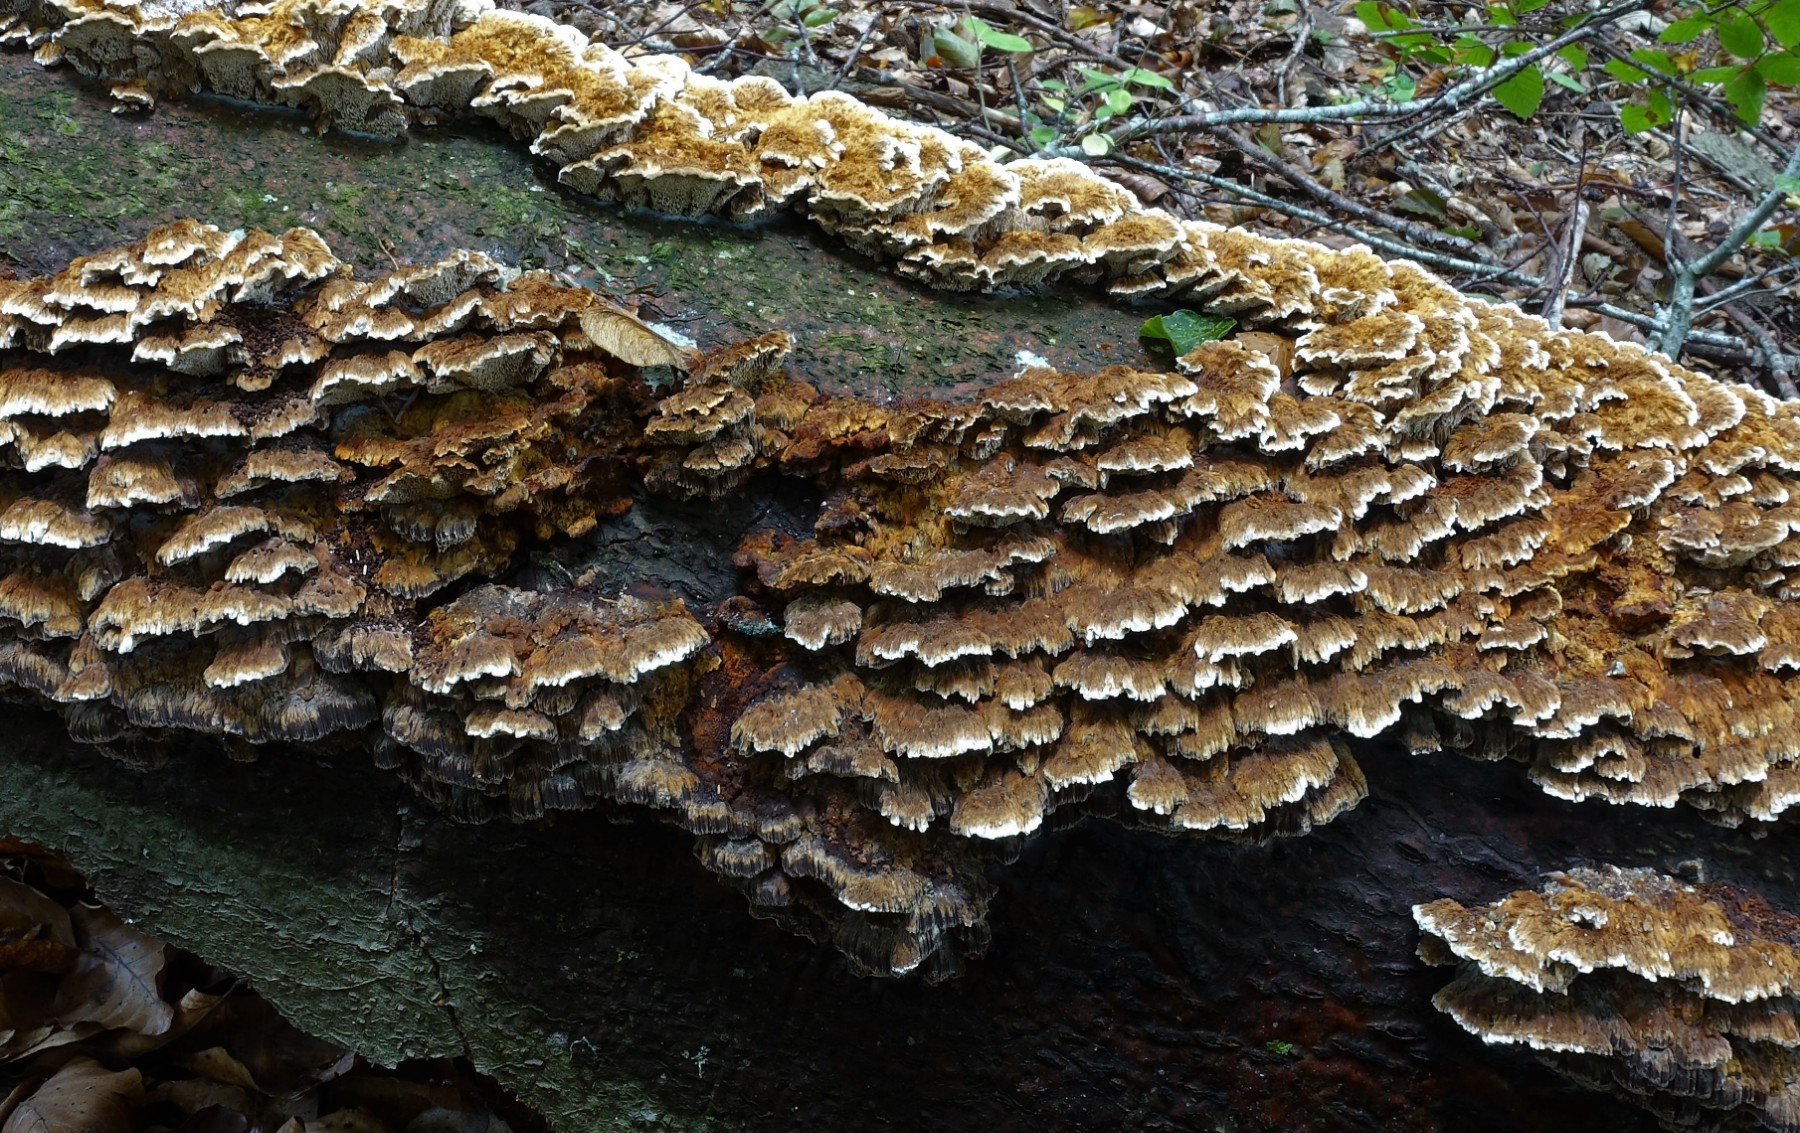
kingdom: Fungi
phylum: Basidiomycota
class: Agaricomycetes
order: Hymenochaetales
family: Hymenochaetaceae
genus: Mensularia
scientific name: Mensularia nodulosa
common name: bøge-spejlporesvamp
